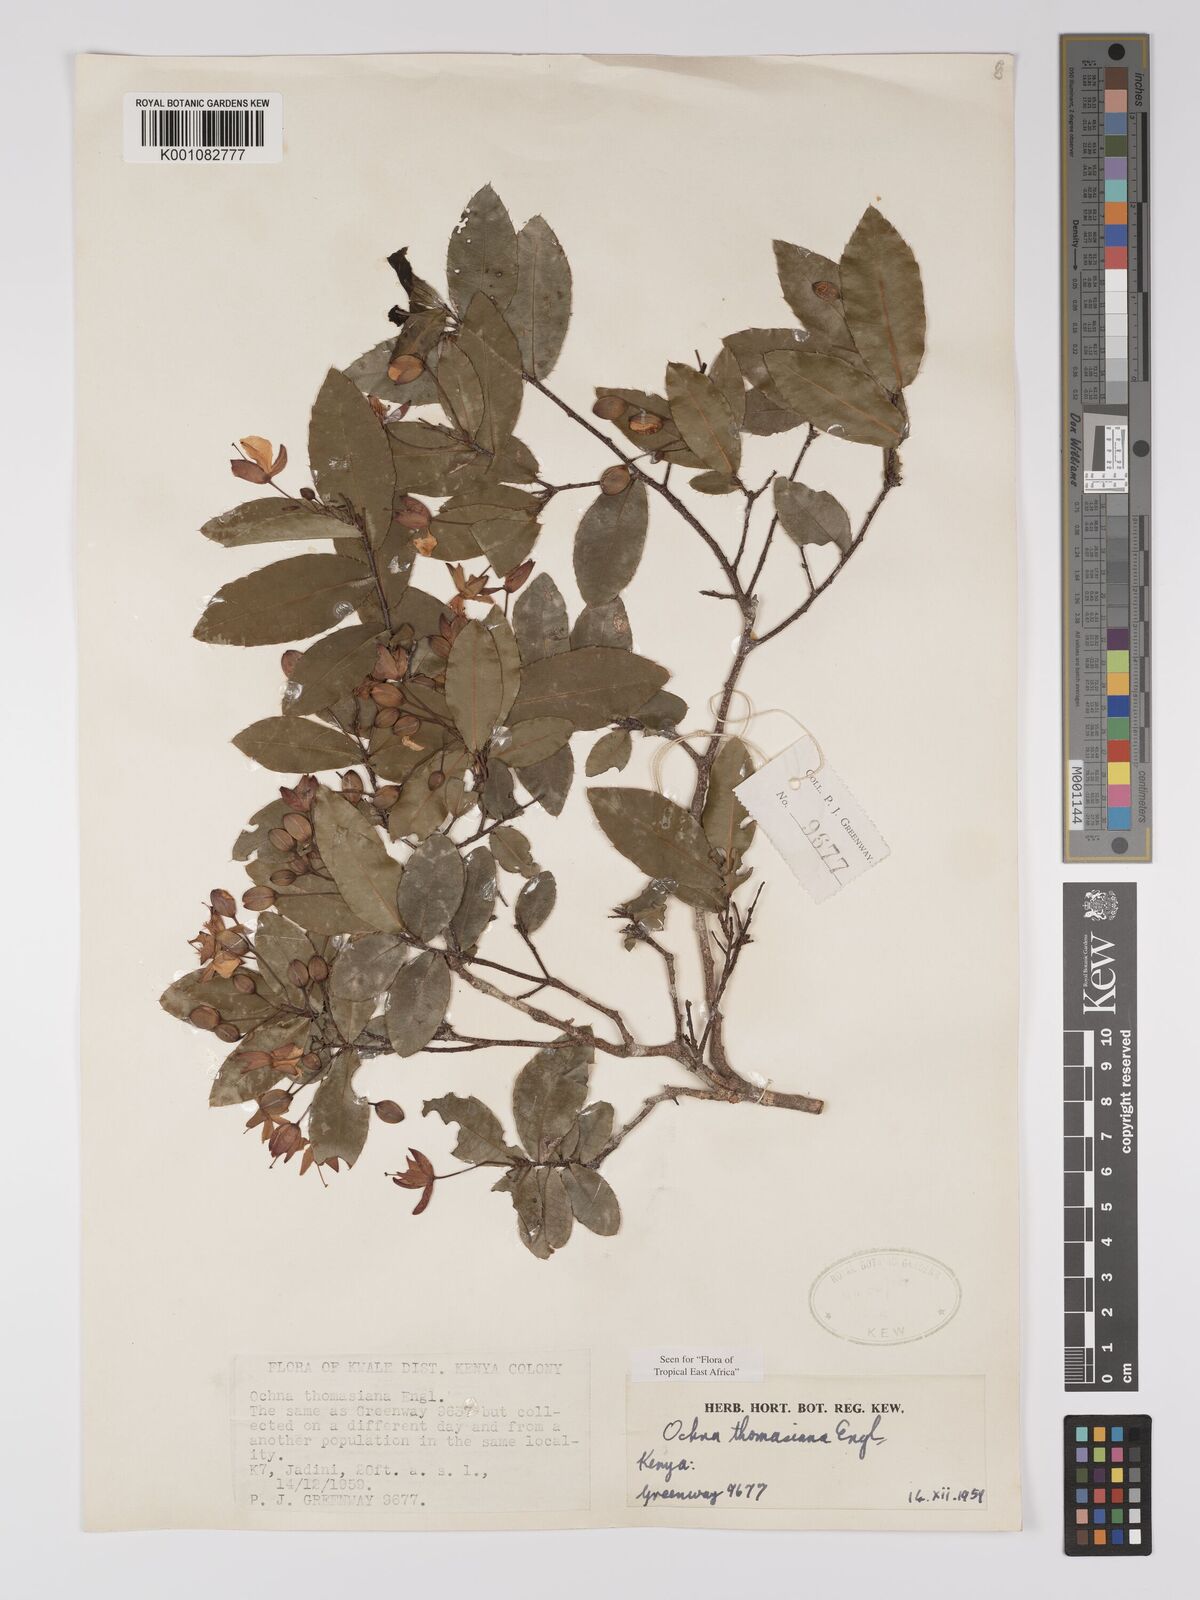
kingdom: Plantae
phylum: Tracheophyta
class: Magnoliopsida
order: Malpighiales
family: Ochnaceae
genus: Ochna
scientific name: Ochna thomasiana
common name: Thomas' bird's-eye bush
